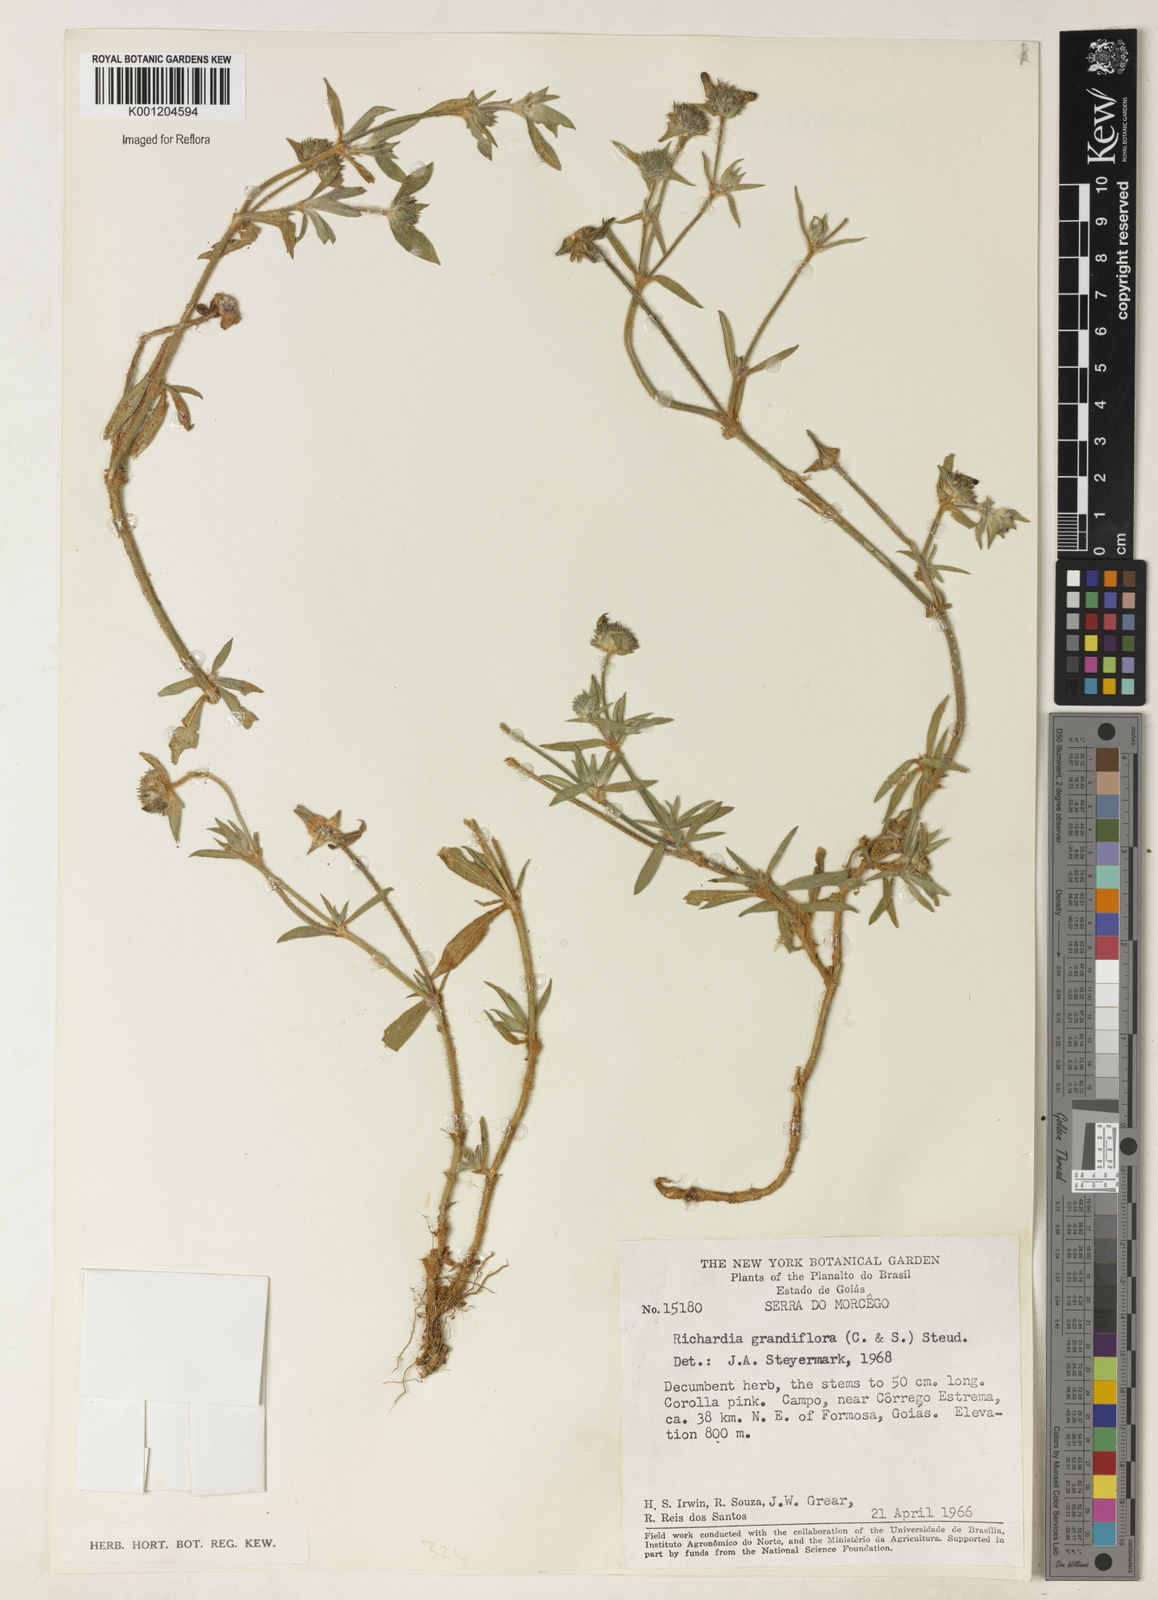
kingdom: Plantae
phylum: Tracheophyta
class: Magnoliopsida
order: Gentianales
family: Rubiaceae
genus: Richardia
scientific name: Richardia grandiflora
